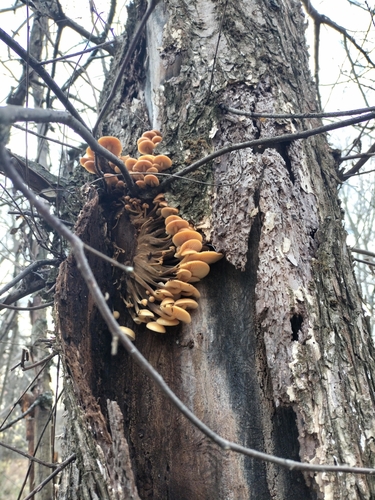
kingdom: Fungi
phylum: Basidiomycota
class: Agaricomycetes
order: Agaricales
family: Physalacriaceae
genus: Flammulina
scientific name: Flammulina velutipes
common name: Velvet shank
